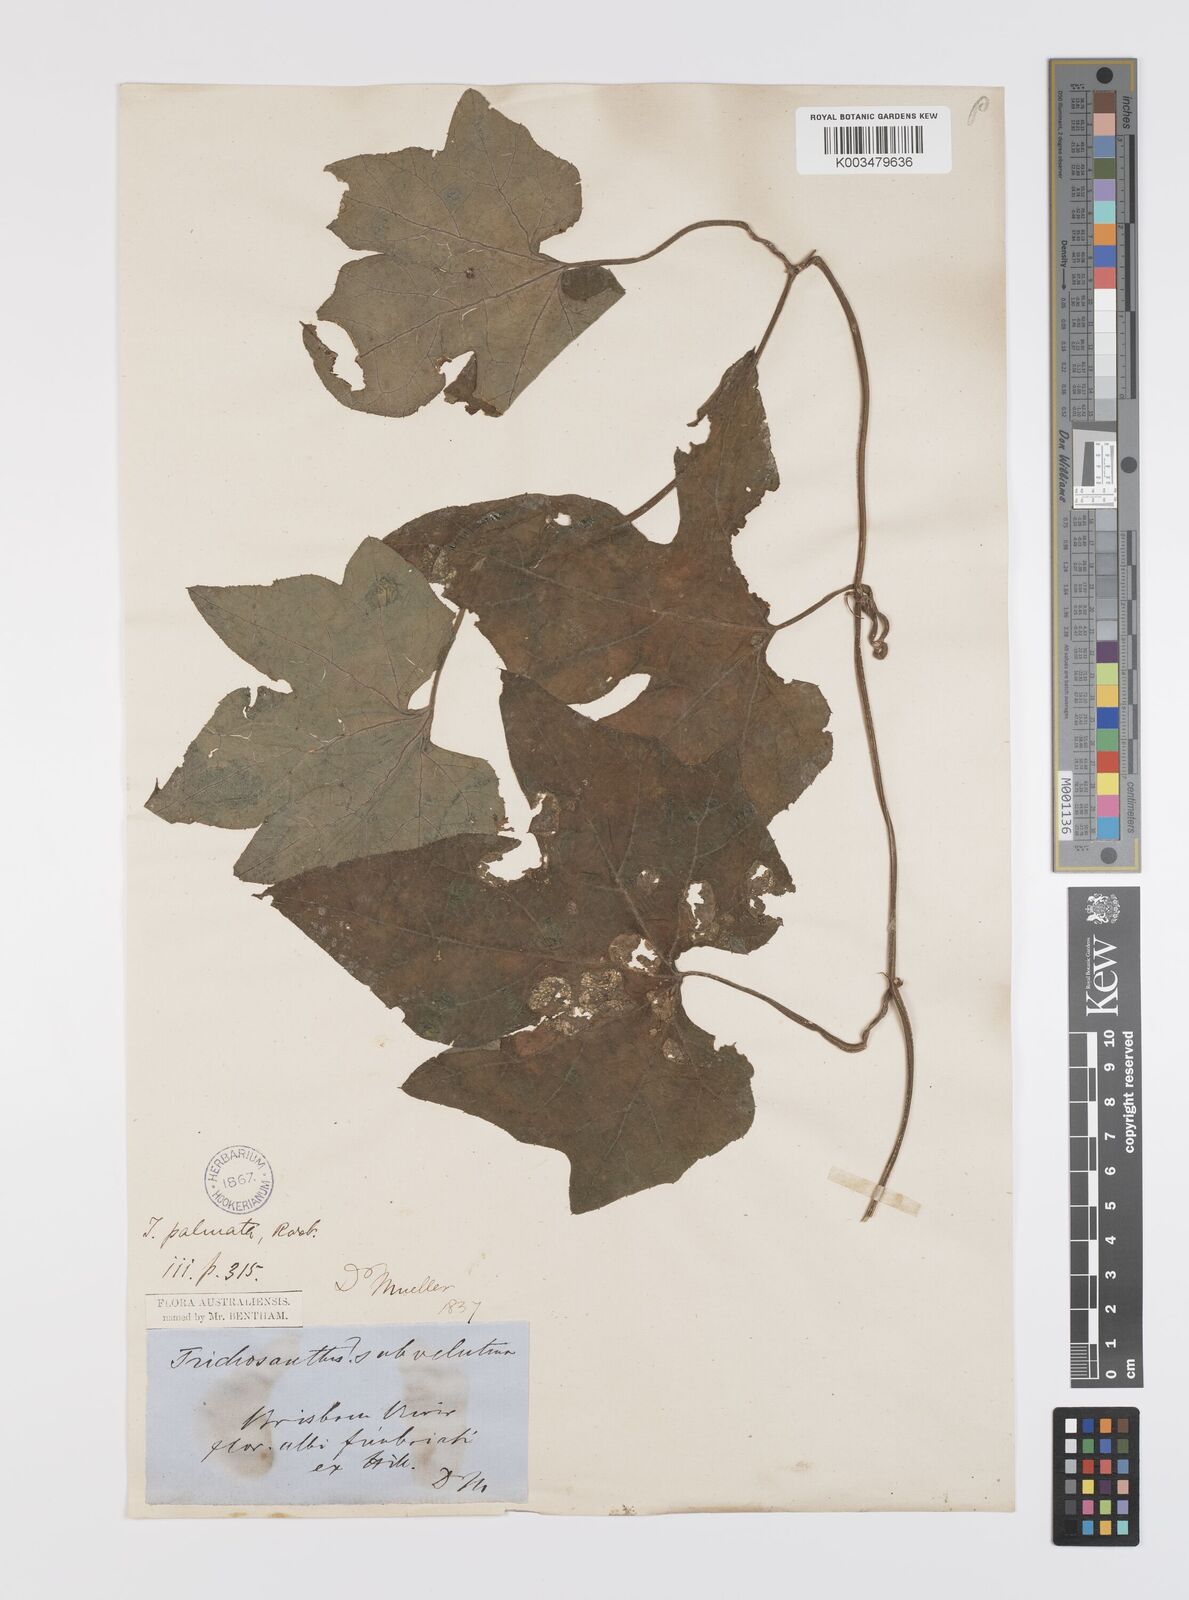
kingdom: Plantae
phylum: Tracheophyta
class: Magnoliopsida
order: Cucurbitales
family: Cucurbitaceae
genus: Trichosanthes
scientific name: Trichosanthes ovigera
